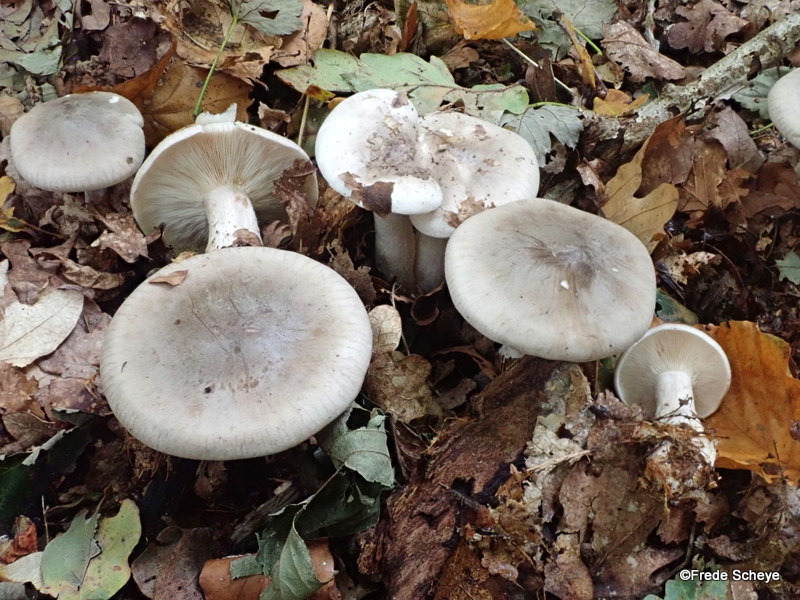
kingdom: Fungi
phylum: Basidiomycota
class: Agaricomycetes
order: Agaricales
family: Tricholomataceae
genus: Clitocybe
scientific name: Clitocybe nebularis
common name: tåge-tragthat
